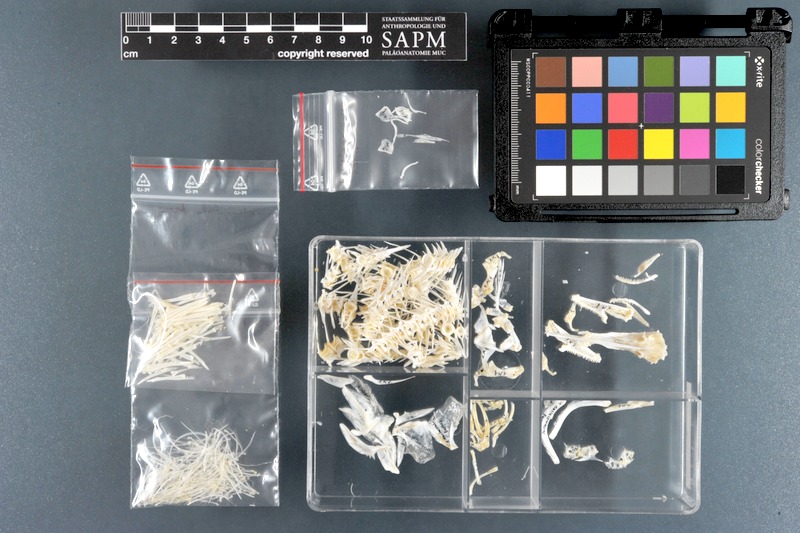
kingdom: Animalia
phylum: Chordata
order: Synbranchiformes
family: Mastacembelidae
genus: Mastacembelus
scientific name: Mastacembelus favus
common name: Flower spiny eel
